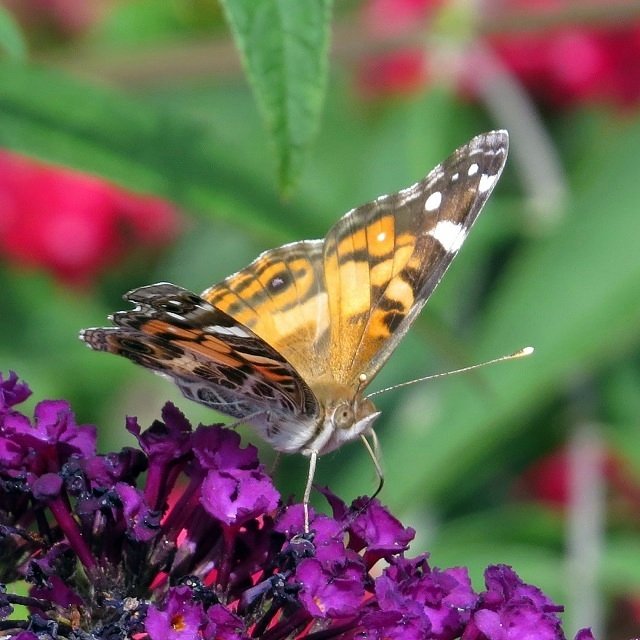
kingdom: Animalia
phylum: Arthropoda
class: Insecta
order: Lepidoptera
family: Nymphalidae
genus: Vanessa
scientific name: Vanessa virginiensis
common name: American Lady
